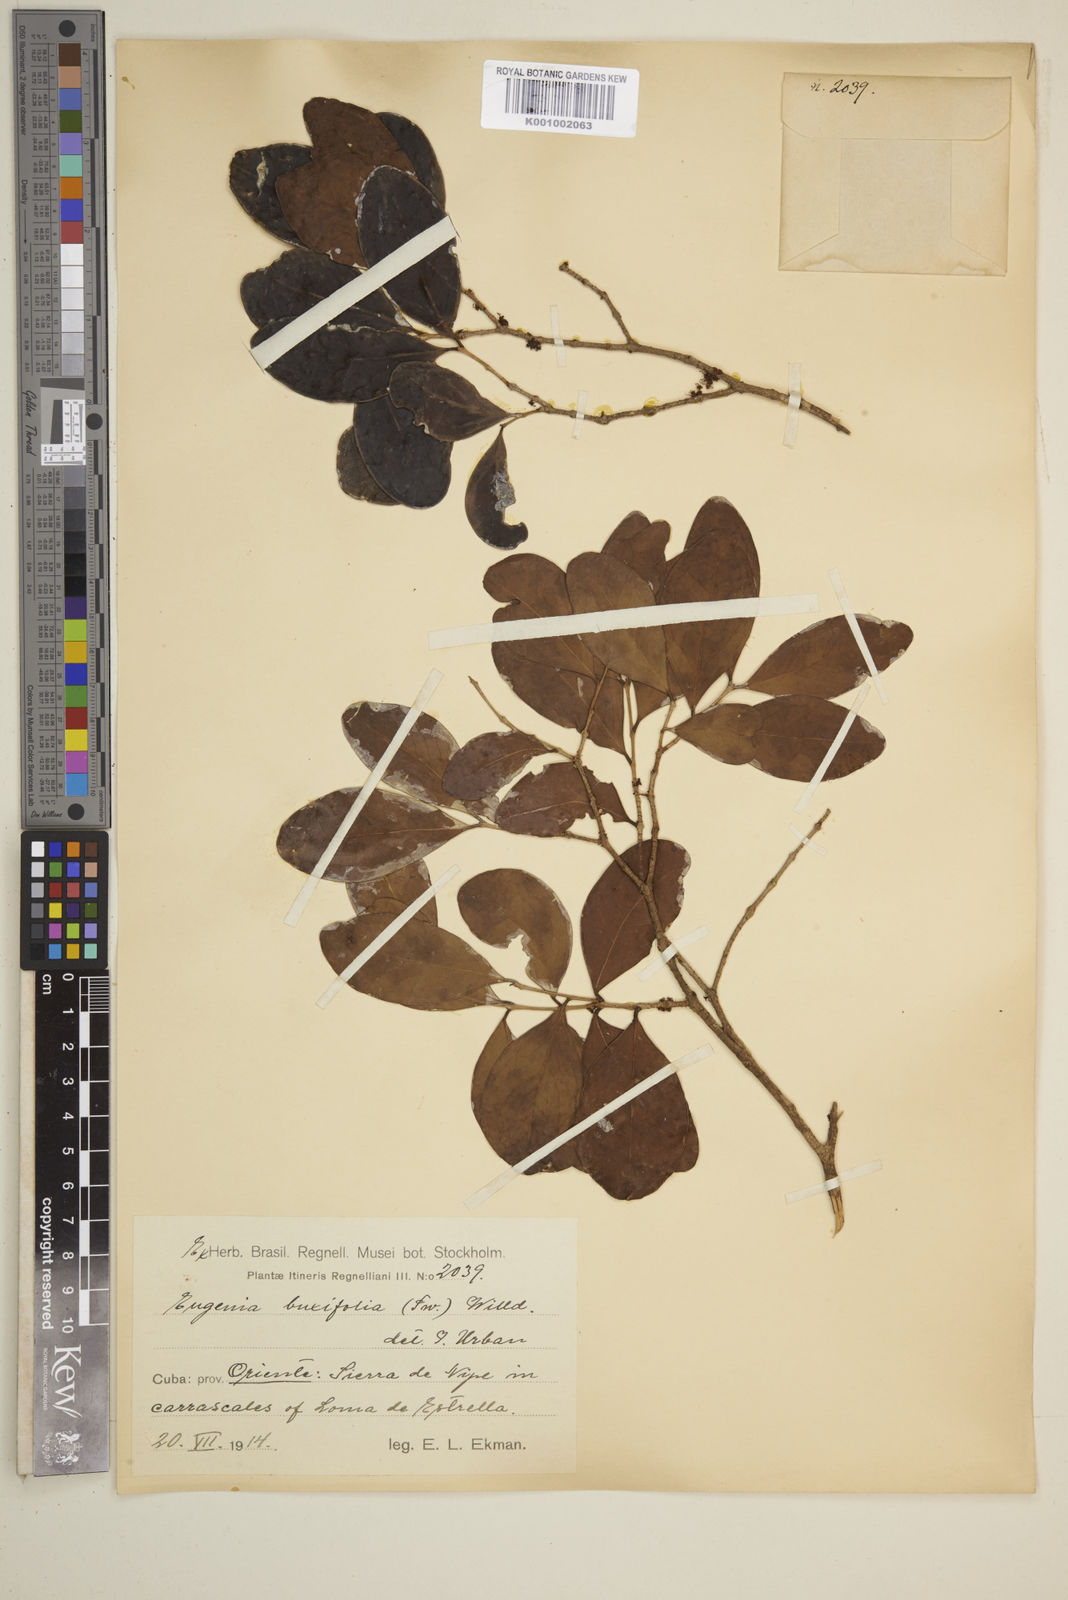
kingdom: Plantae
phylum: Tracheophyta
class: Magnoliopsida
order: Myrtales
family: Myrtaceae
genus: Eugenia
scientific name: Eugenia buxifolia
